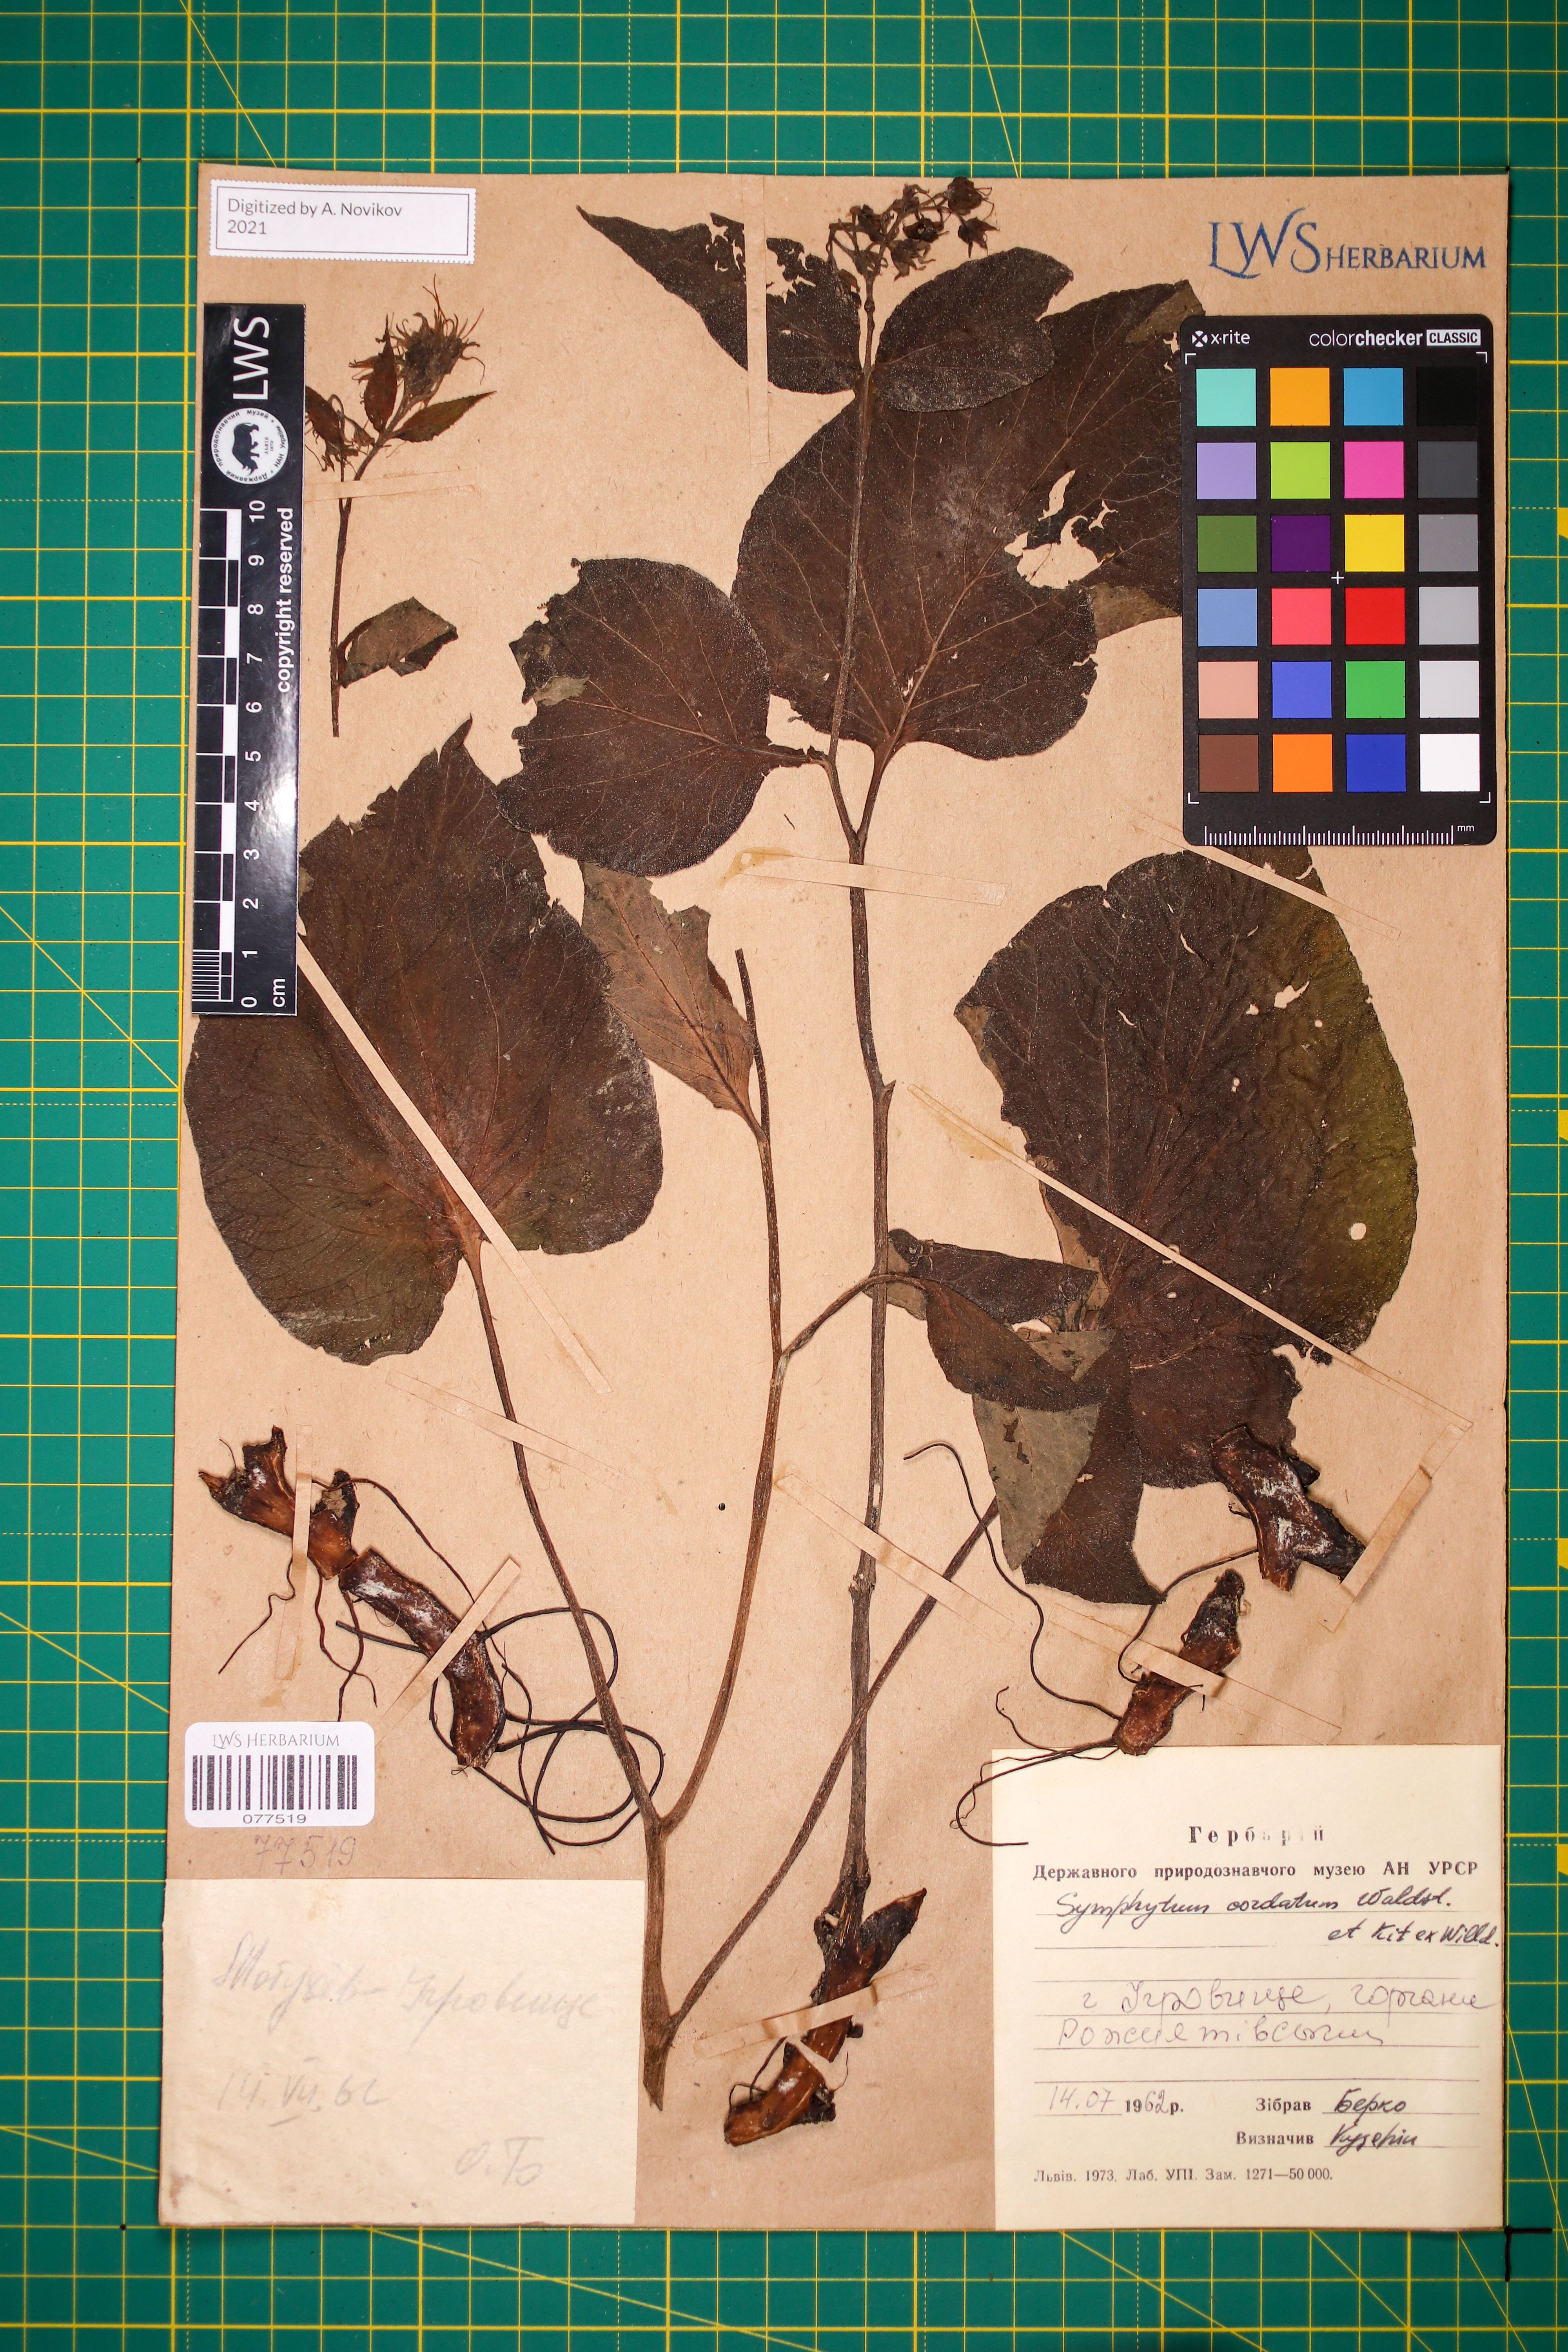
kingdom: Plantae
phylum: Tracheophyta
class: Magnoliopsida
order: Boraginales
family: Boraginaceae
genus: Symphytum
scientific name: Symphytum cordatum
